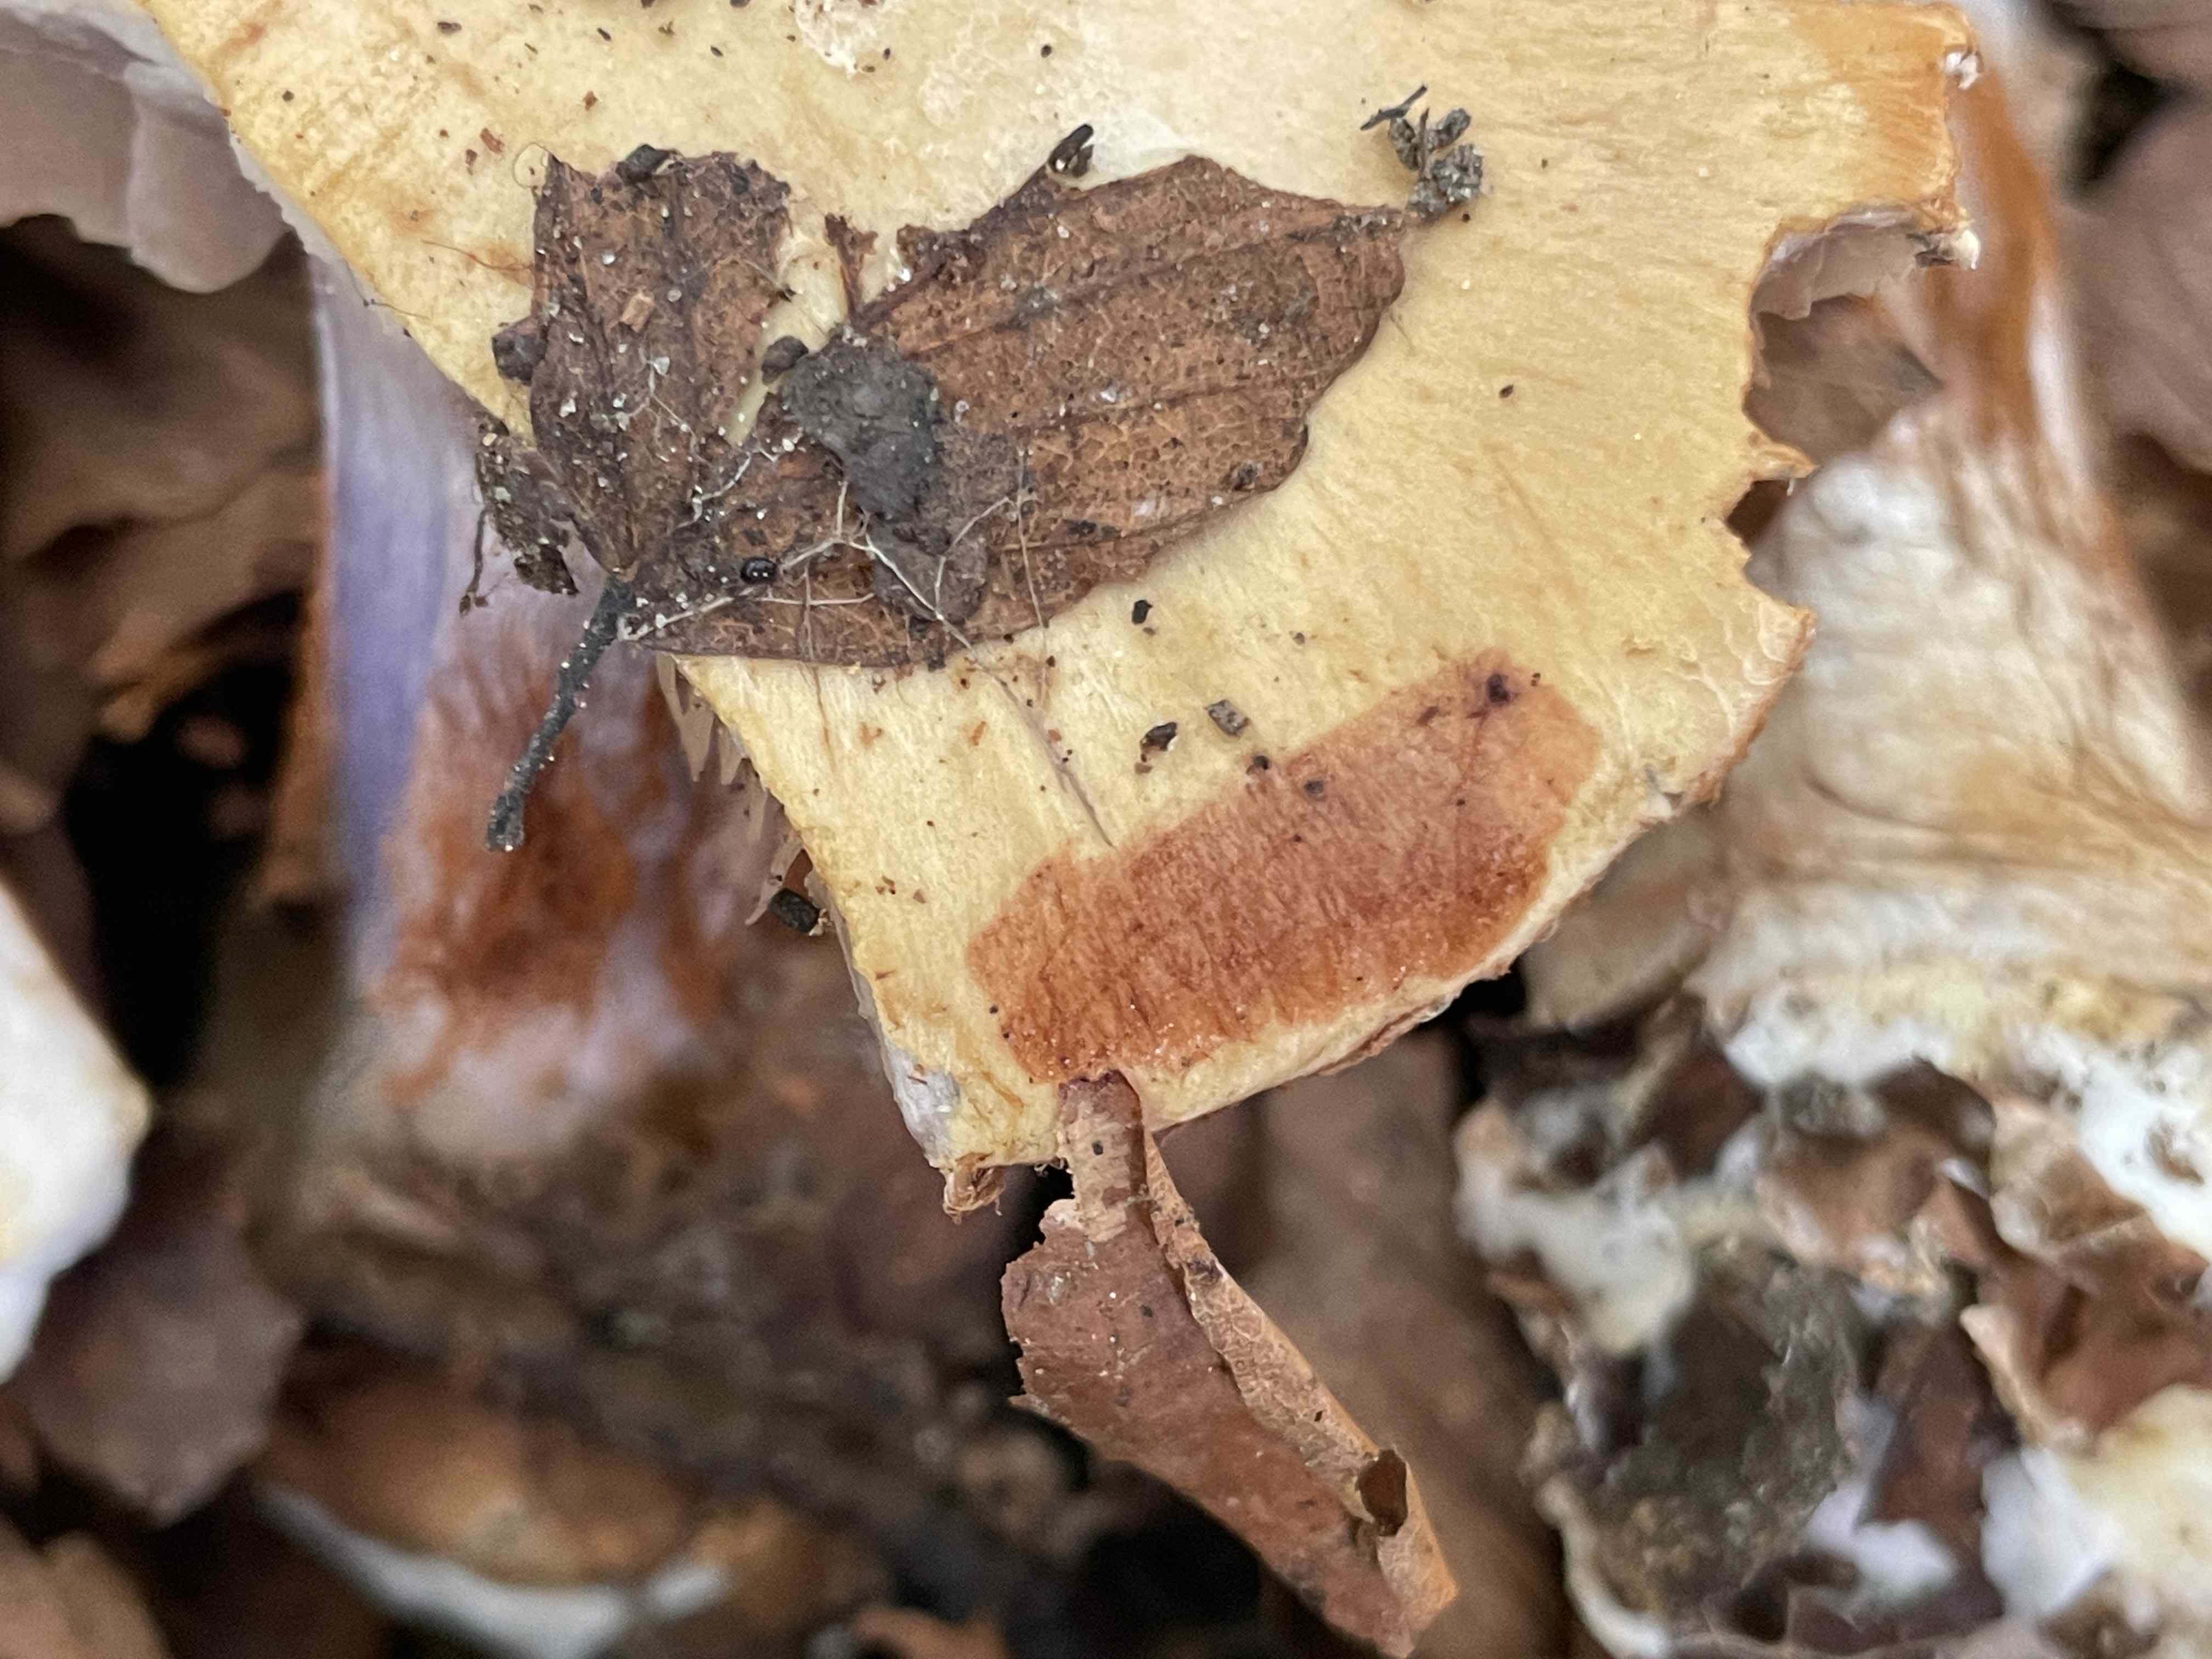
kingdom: Fungi
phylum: Basidiomycota
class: Agaricomycetes
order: Agaricales
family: Cortinariaceae
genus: Cortinarius
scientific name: Cortinarius
